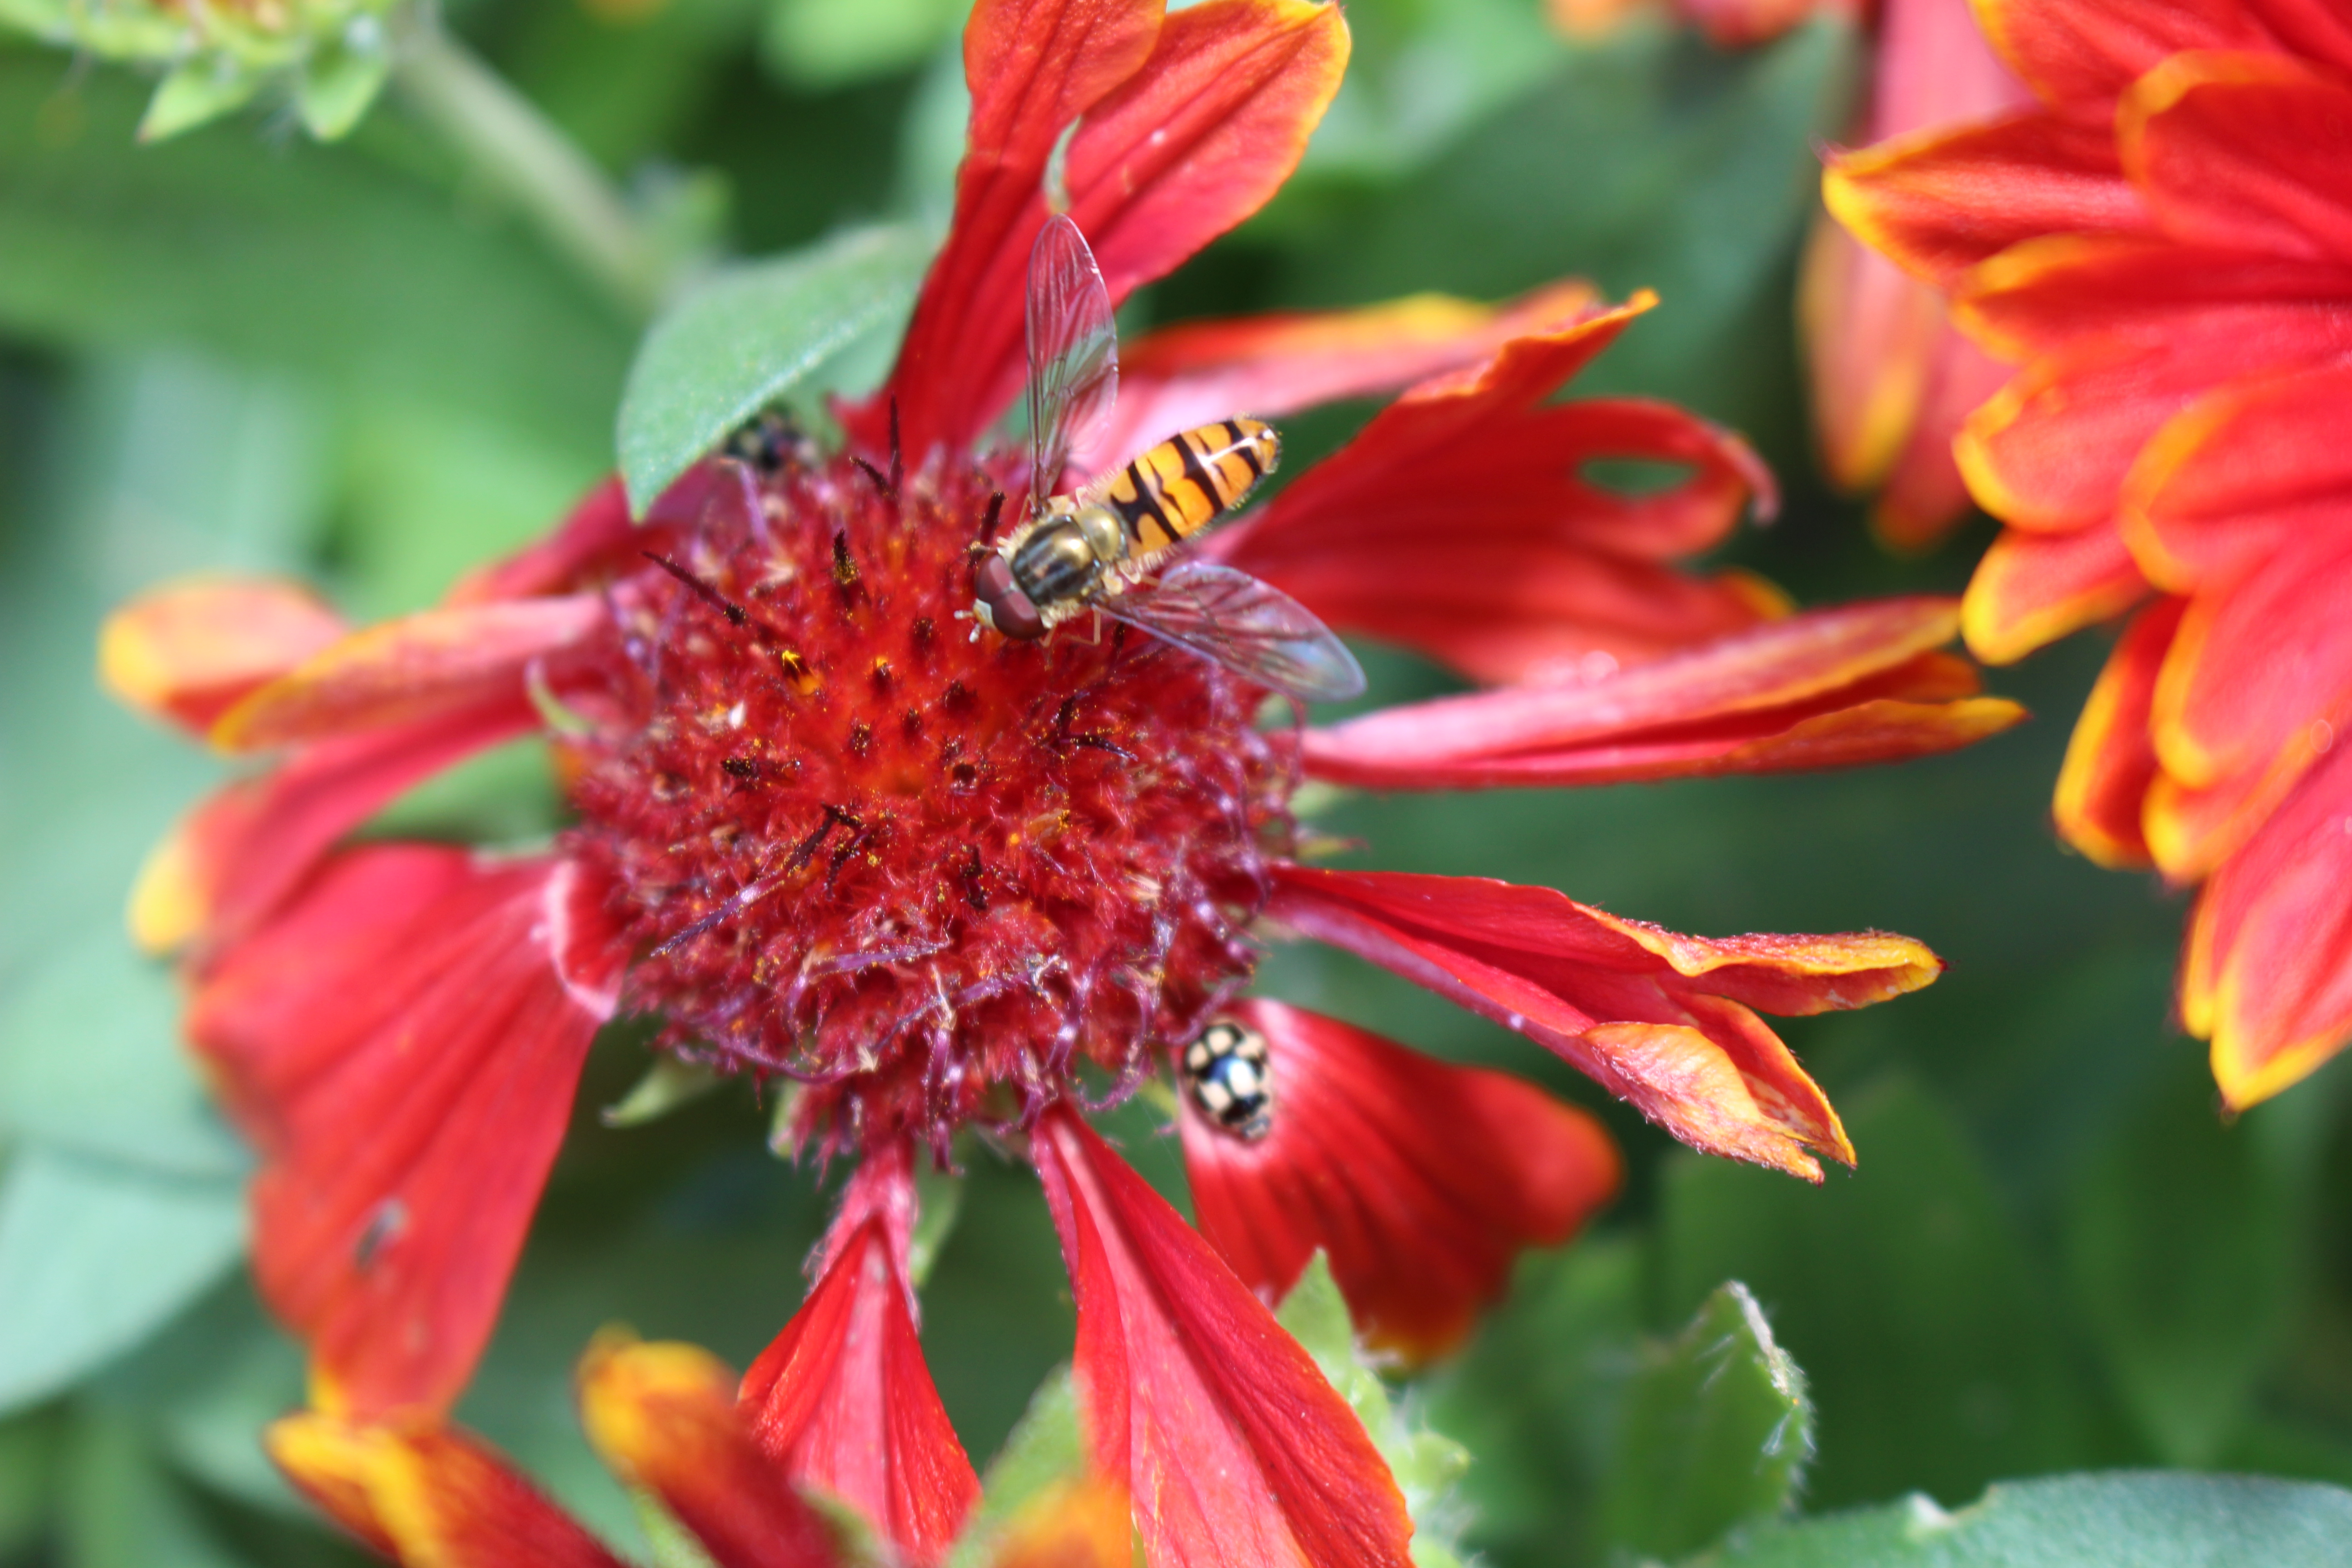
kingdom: Animalia
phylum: Arthropoda
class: Insecta
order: Diptera
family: Syrphidae
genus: Episyrphus
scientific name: Episyrphus balteatus
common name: Dobbeltbåndet svirreflue
